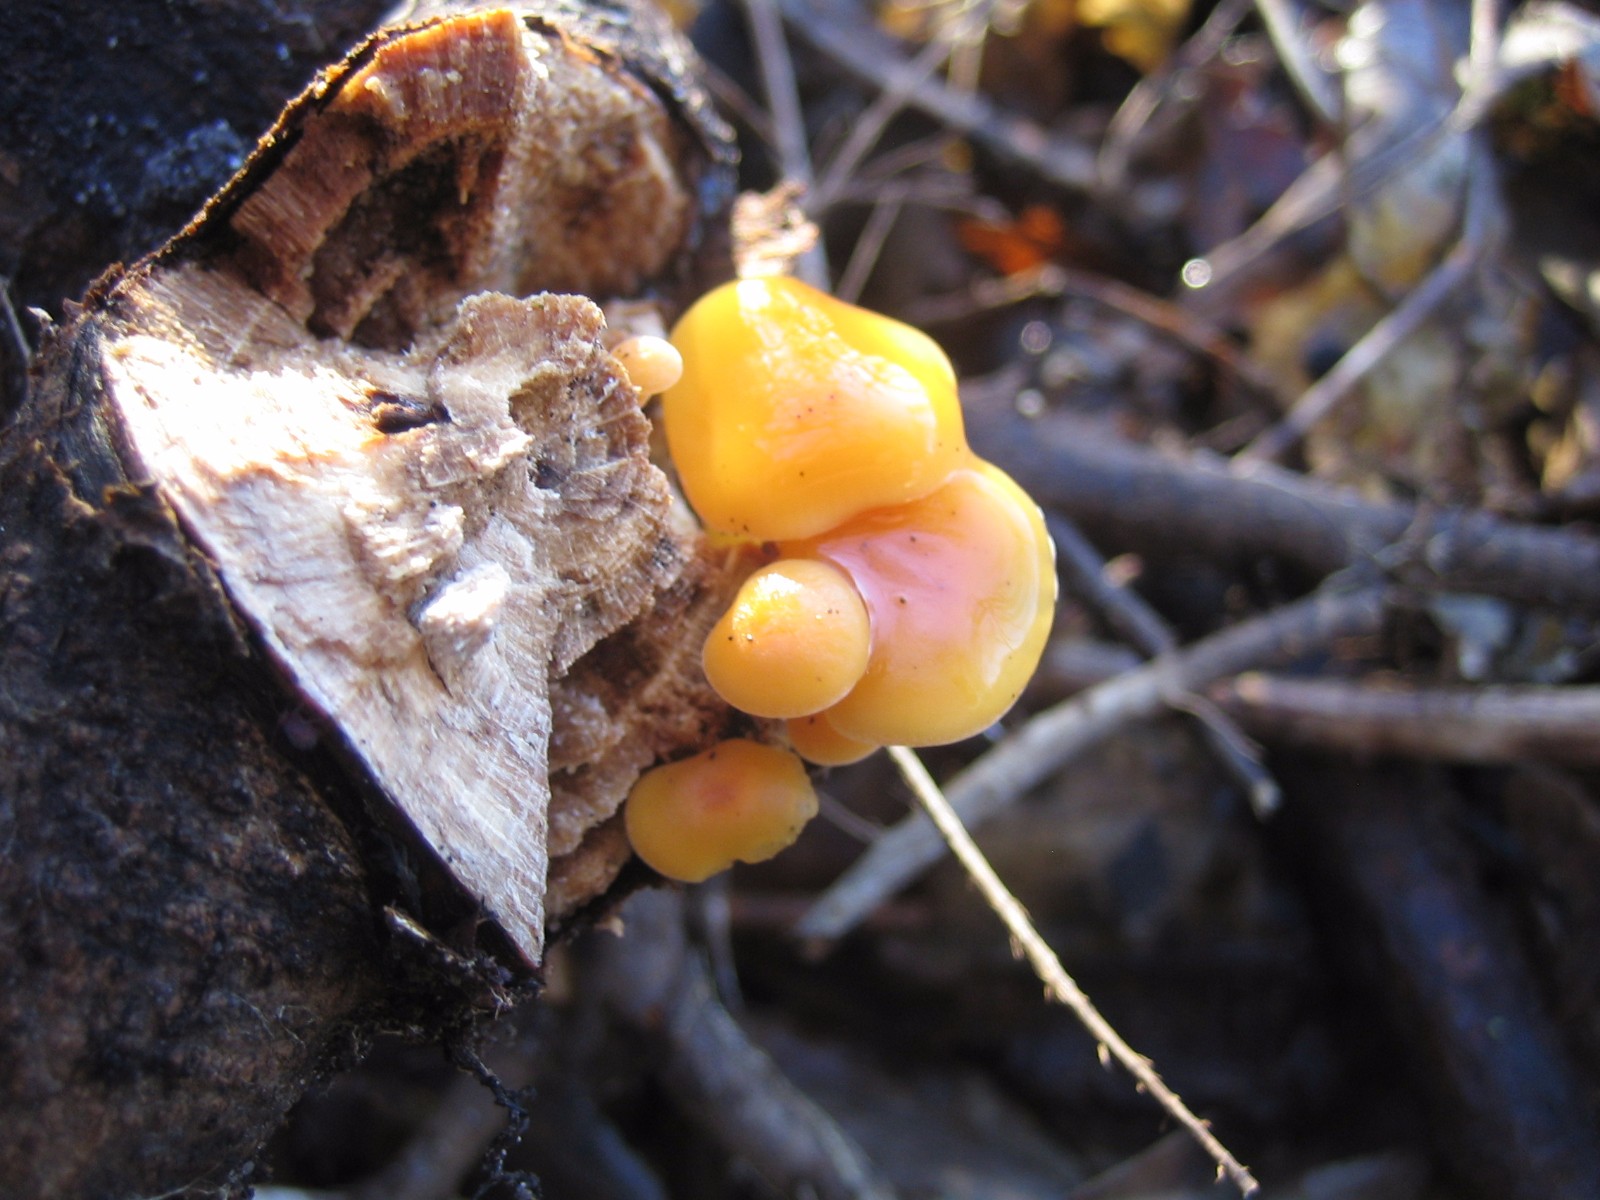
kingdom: Fungi
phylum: Basidiomycota
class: Agaricomycetes
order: Agaricales
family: Physalacriaceae
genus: Flammulina
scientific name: Flammulina velutipes
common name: gul fløjlsfod
